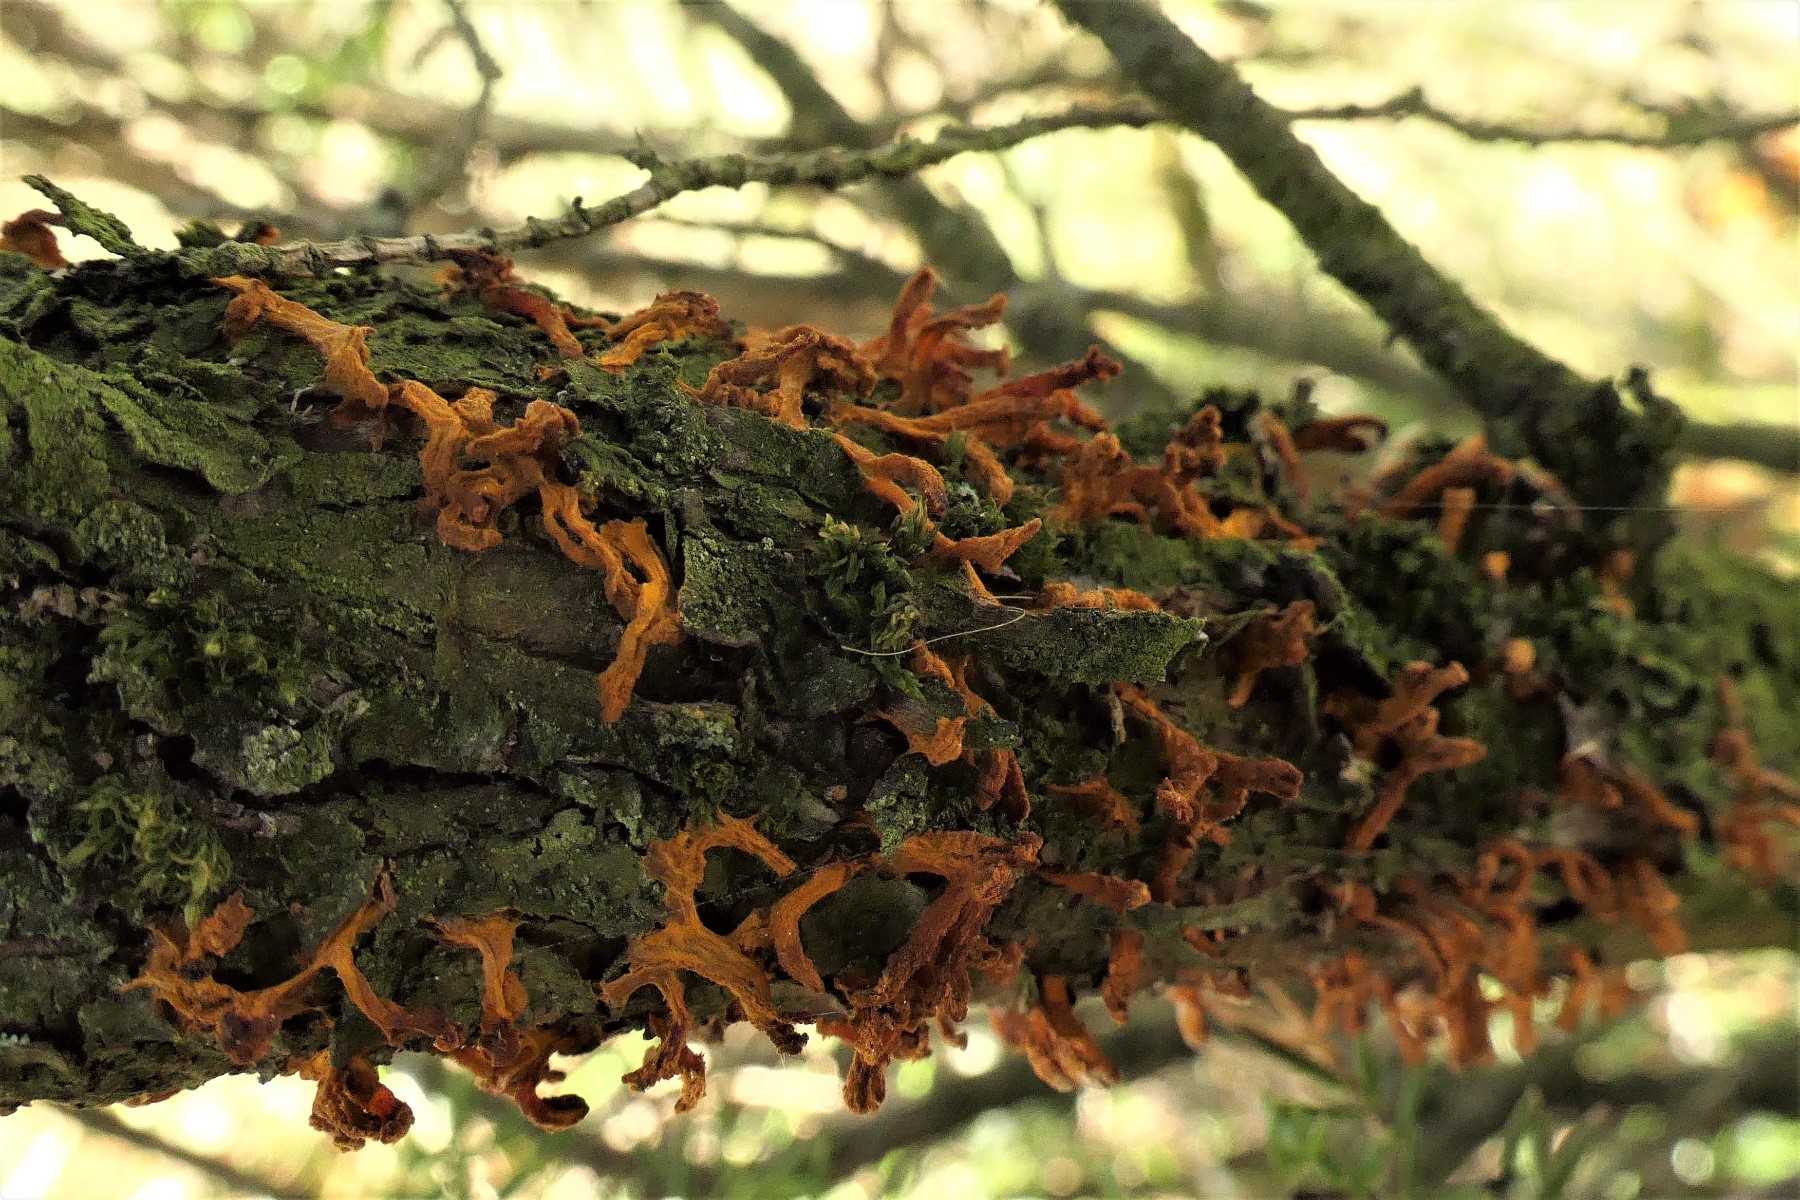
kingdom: Fungi
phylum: Basidiomycota
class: Pucciniomycetes
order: Pucciniales
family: Gymnosporangiaceae
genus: Gymnosporangium
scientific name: Gymnosporangium clavariiforme
